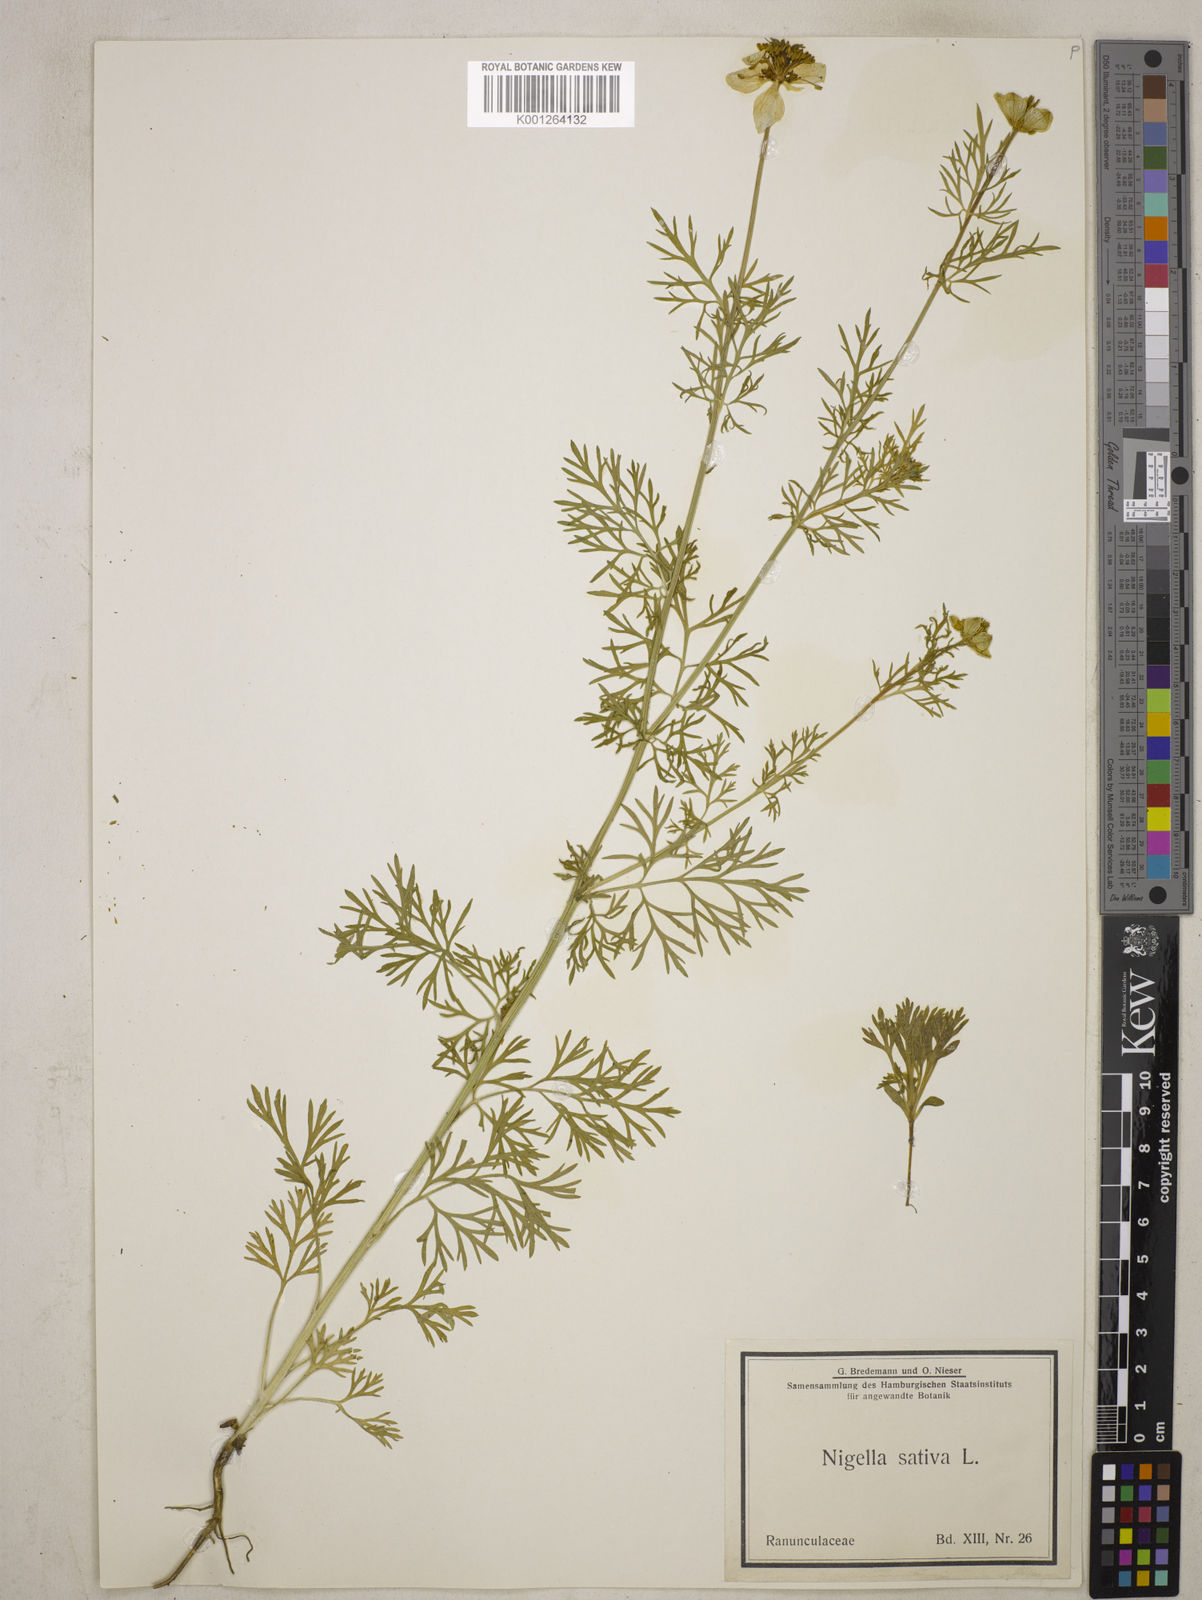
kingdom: Plantae
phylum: Tracheophyta
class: Magnoliopsida
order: Ranunculales
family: Ranunculaceae
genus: Nigella
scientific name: Nigella sativa
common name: Black-cumin
